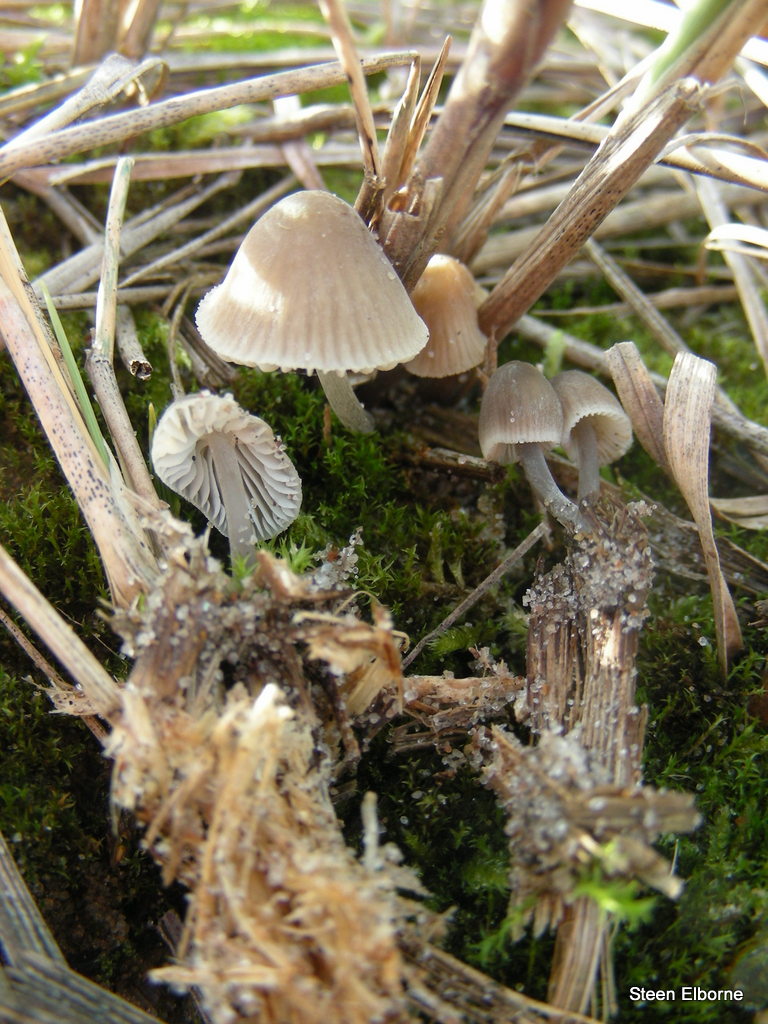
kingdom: Fungi
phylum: Basidiomycota
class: Agaricomycetes
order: Agaricales
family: Mycenaceae
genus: Mycena
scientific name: Mycena chlorantha
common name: klit-huesvamp
